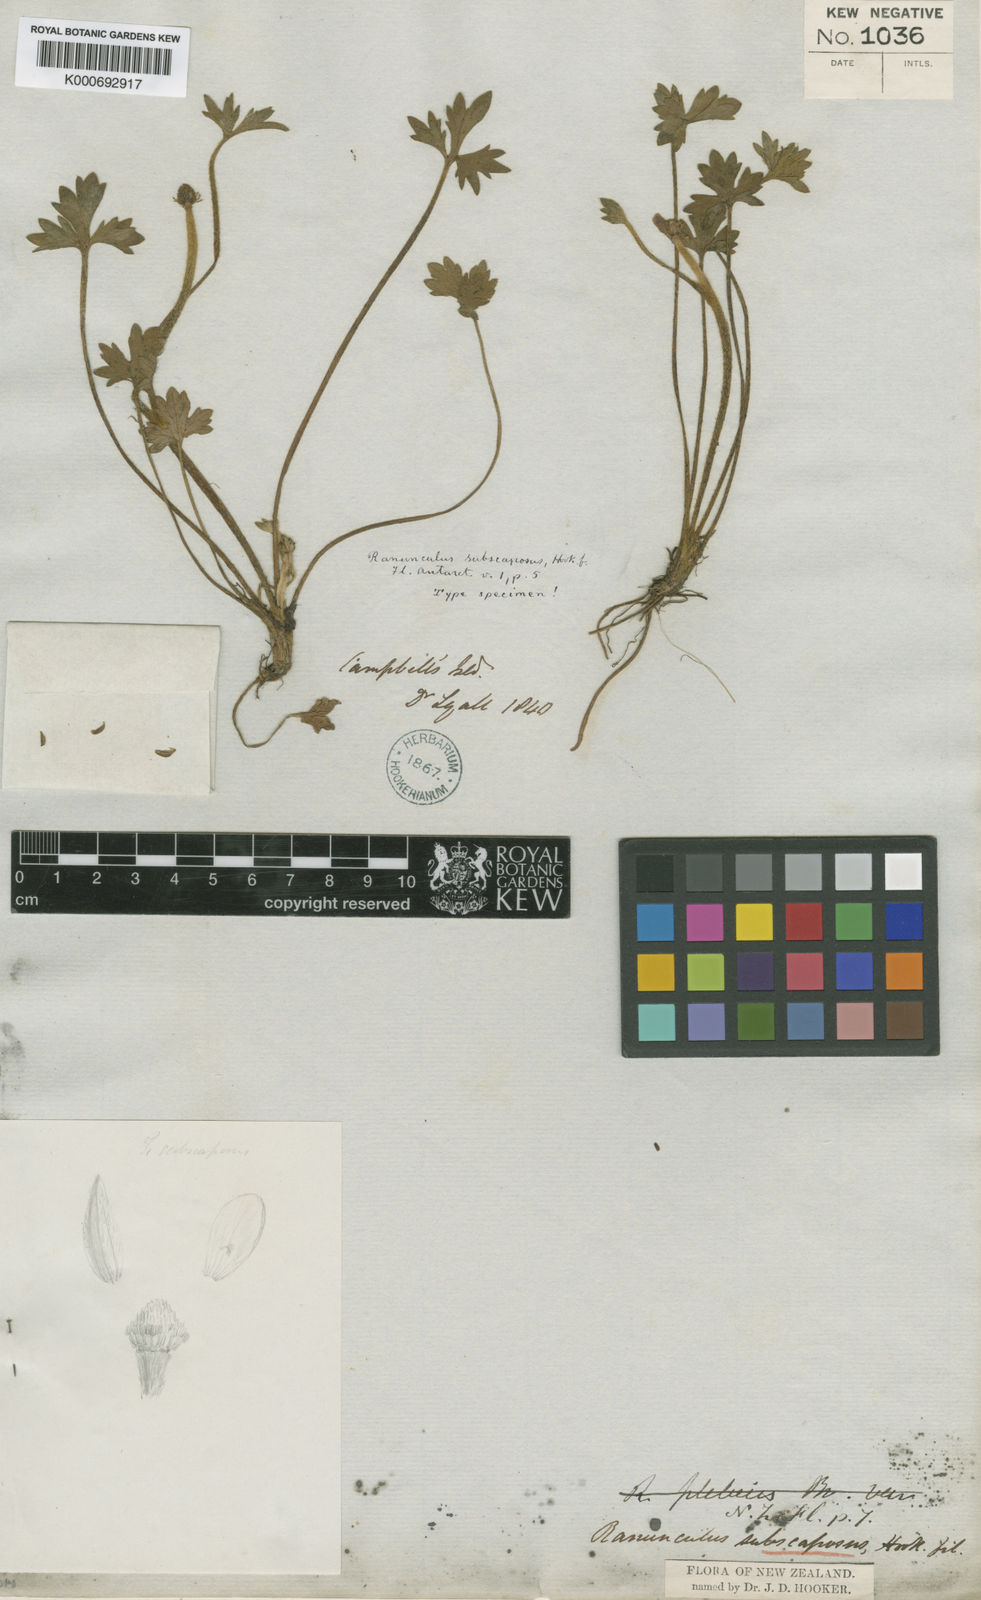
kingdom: Plantae
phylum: Tracheophyta
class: Magnoliopsida
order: Ranunculales
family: Ranunculaceae
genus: Ranunculus
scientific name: Ranunculus subscaposus
